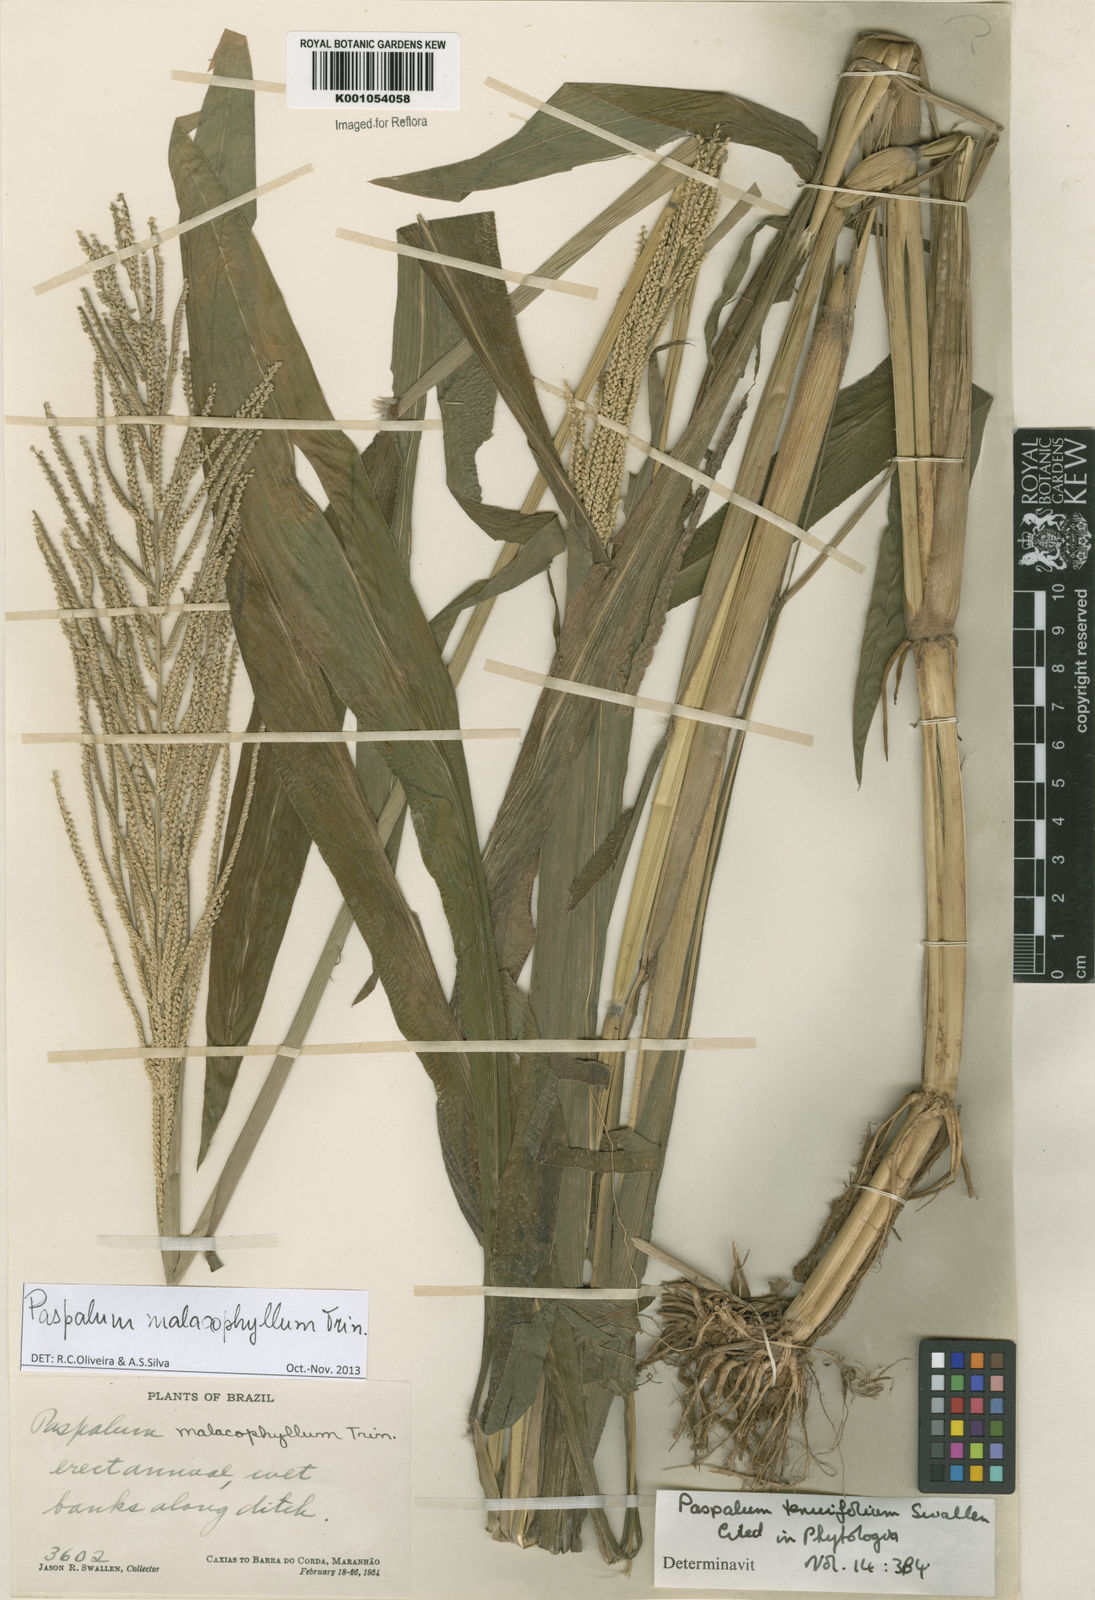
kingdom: Plantae
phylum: Tracheophyta
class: Liliopsida
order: Poales
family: Poaceae
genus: Paspalum
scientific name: Paspalum malacophyllum
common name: Ribbed paspalum
